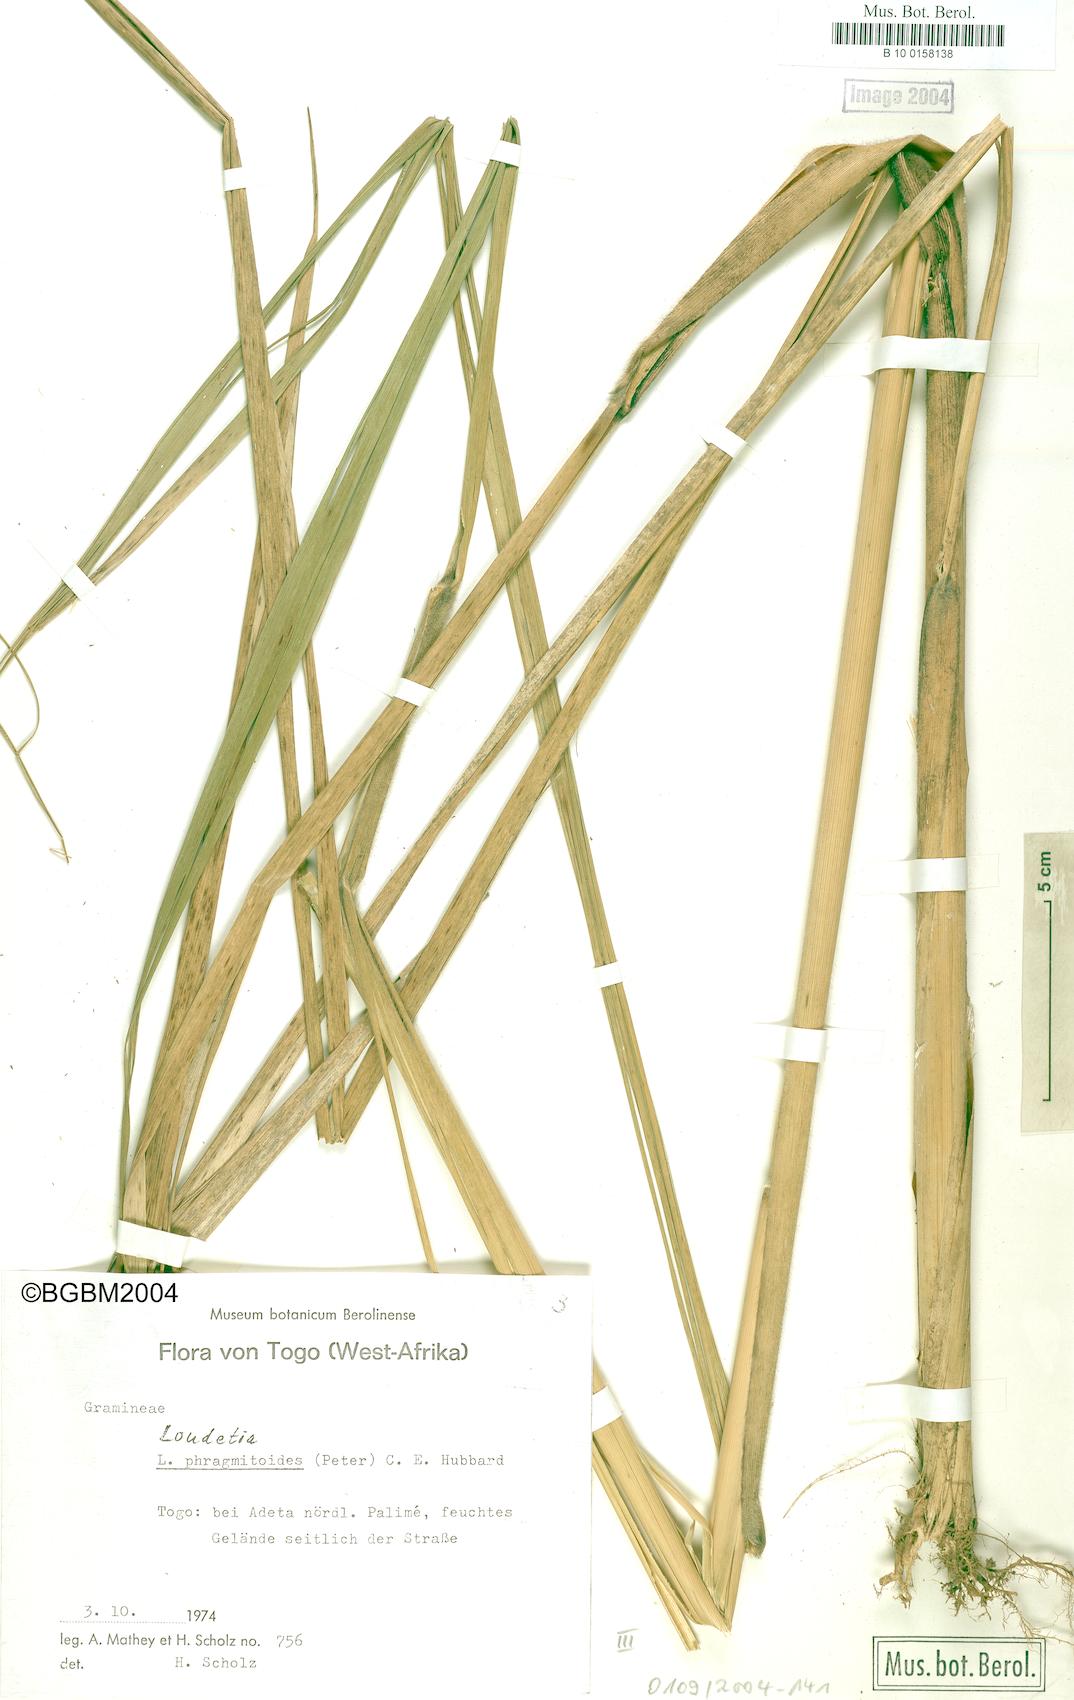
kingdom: Plantae
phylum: Tracheophyta
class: Liliopsida
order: Poales
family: Poaceae
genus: Loudetia
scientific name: Loudetia phragmitoides
